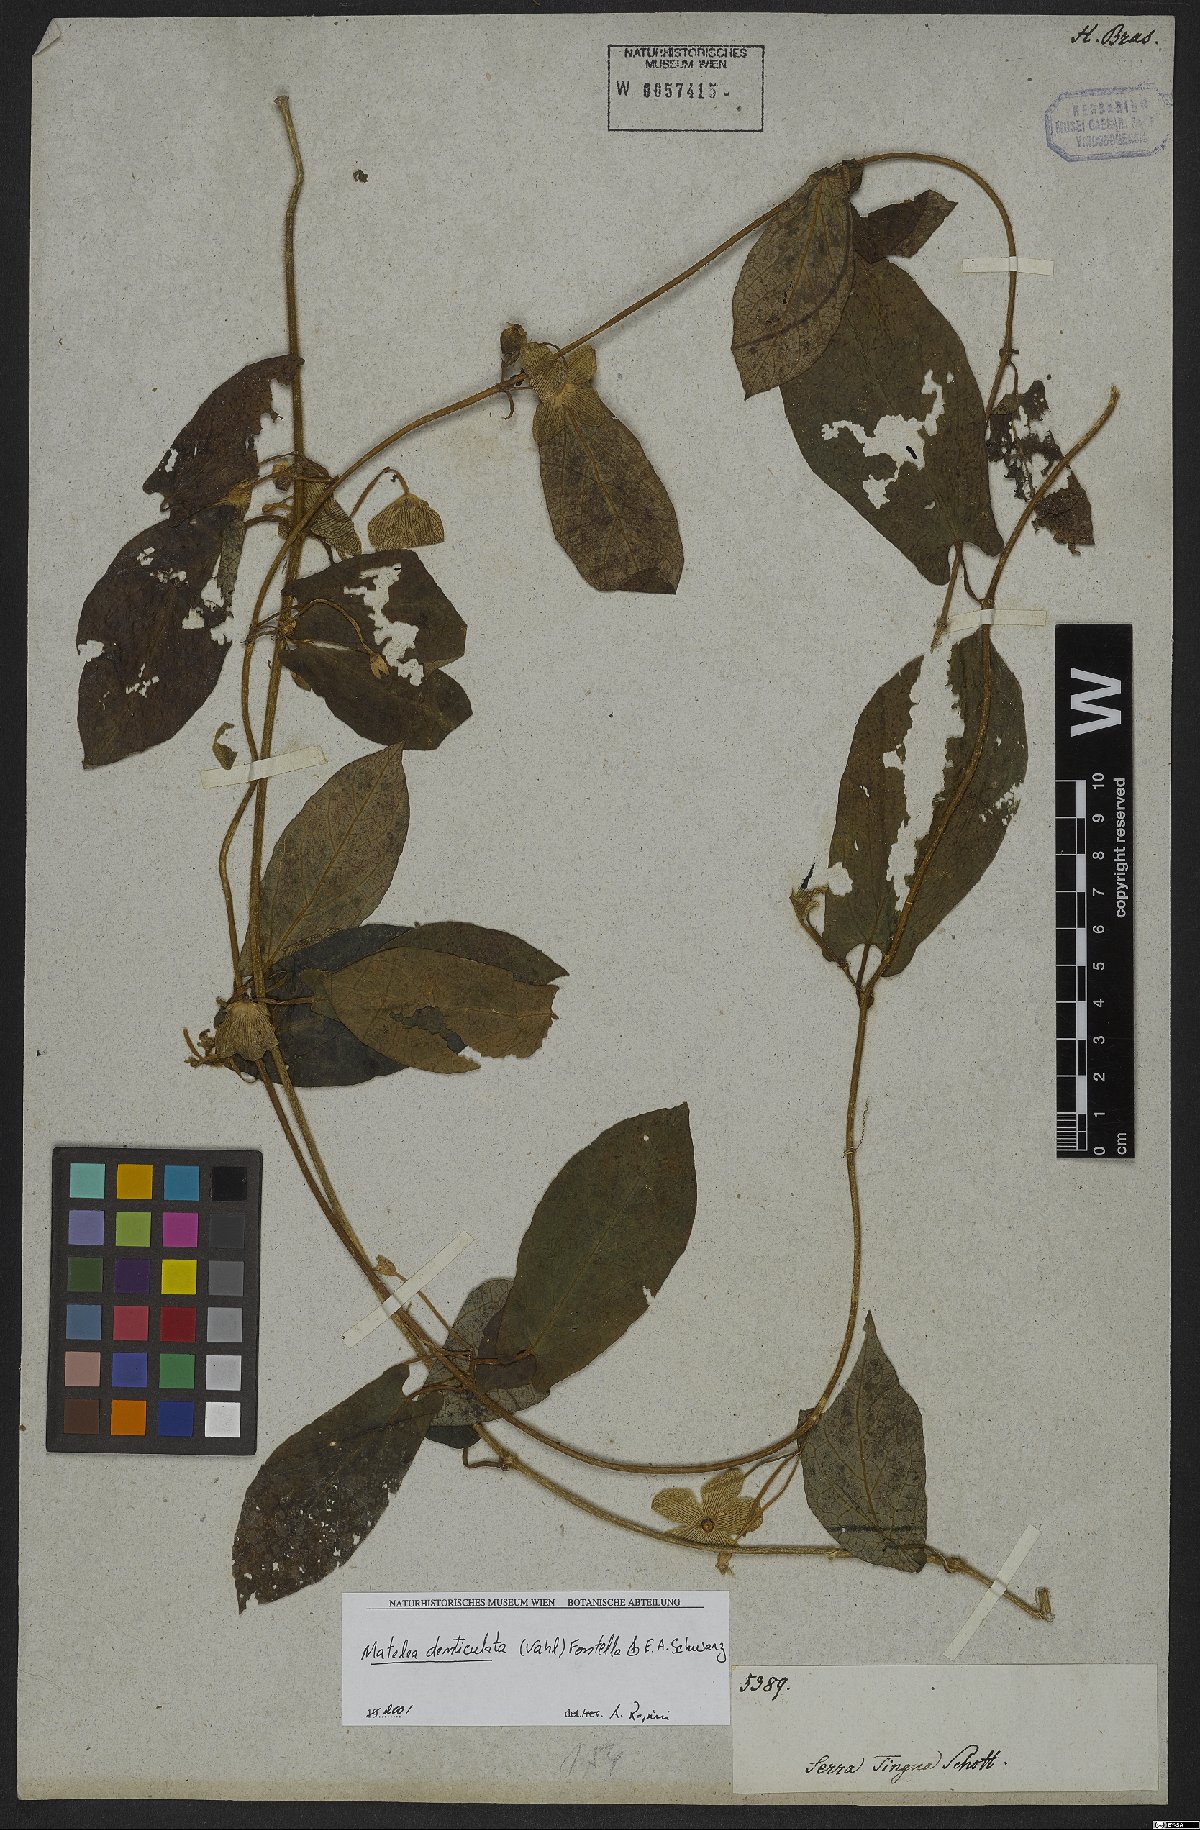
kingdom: Plantae
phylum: Tracheophyta
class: Magnoliopsida
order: Gentianales
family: Apocynaceae
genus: Chloropetalum
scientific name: Chloropetalum denticulatum
